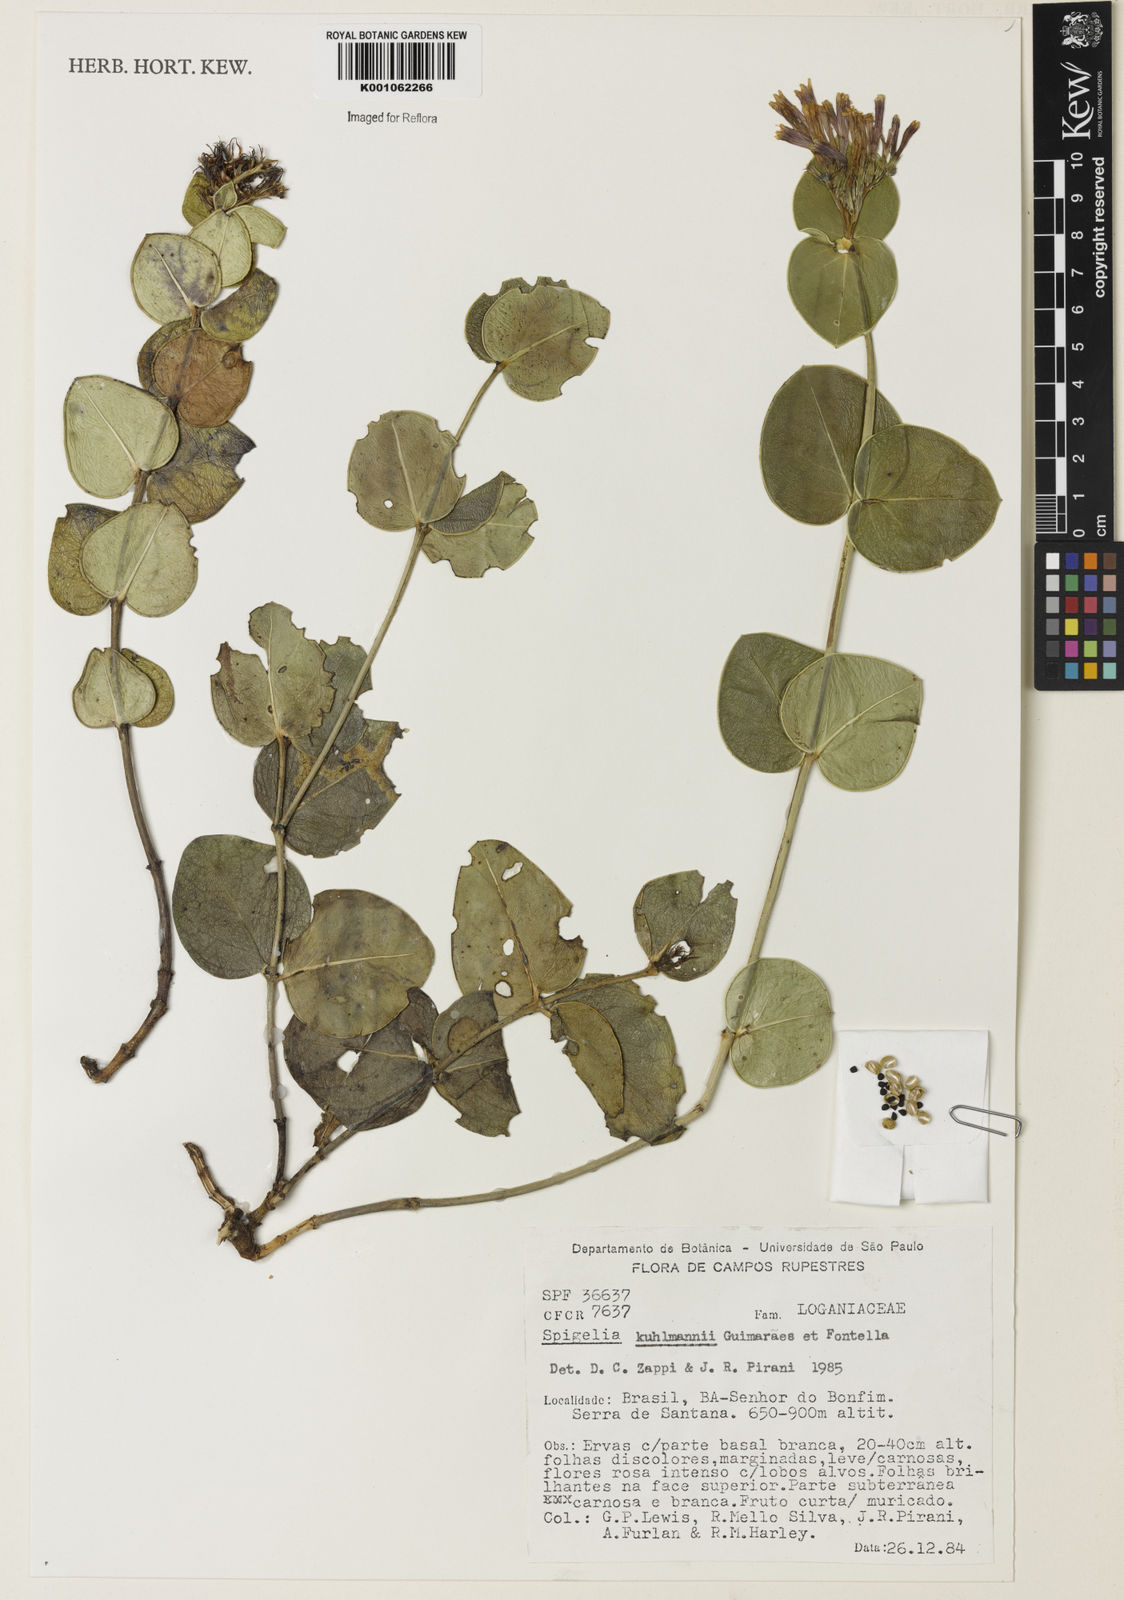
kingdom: Plantae
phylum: Tracheophyta
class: Magnoliopsida
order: Gentianales
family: Loganiaceae
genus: Spigelia
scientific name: Spigelia kuhlmannii
